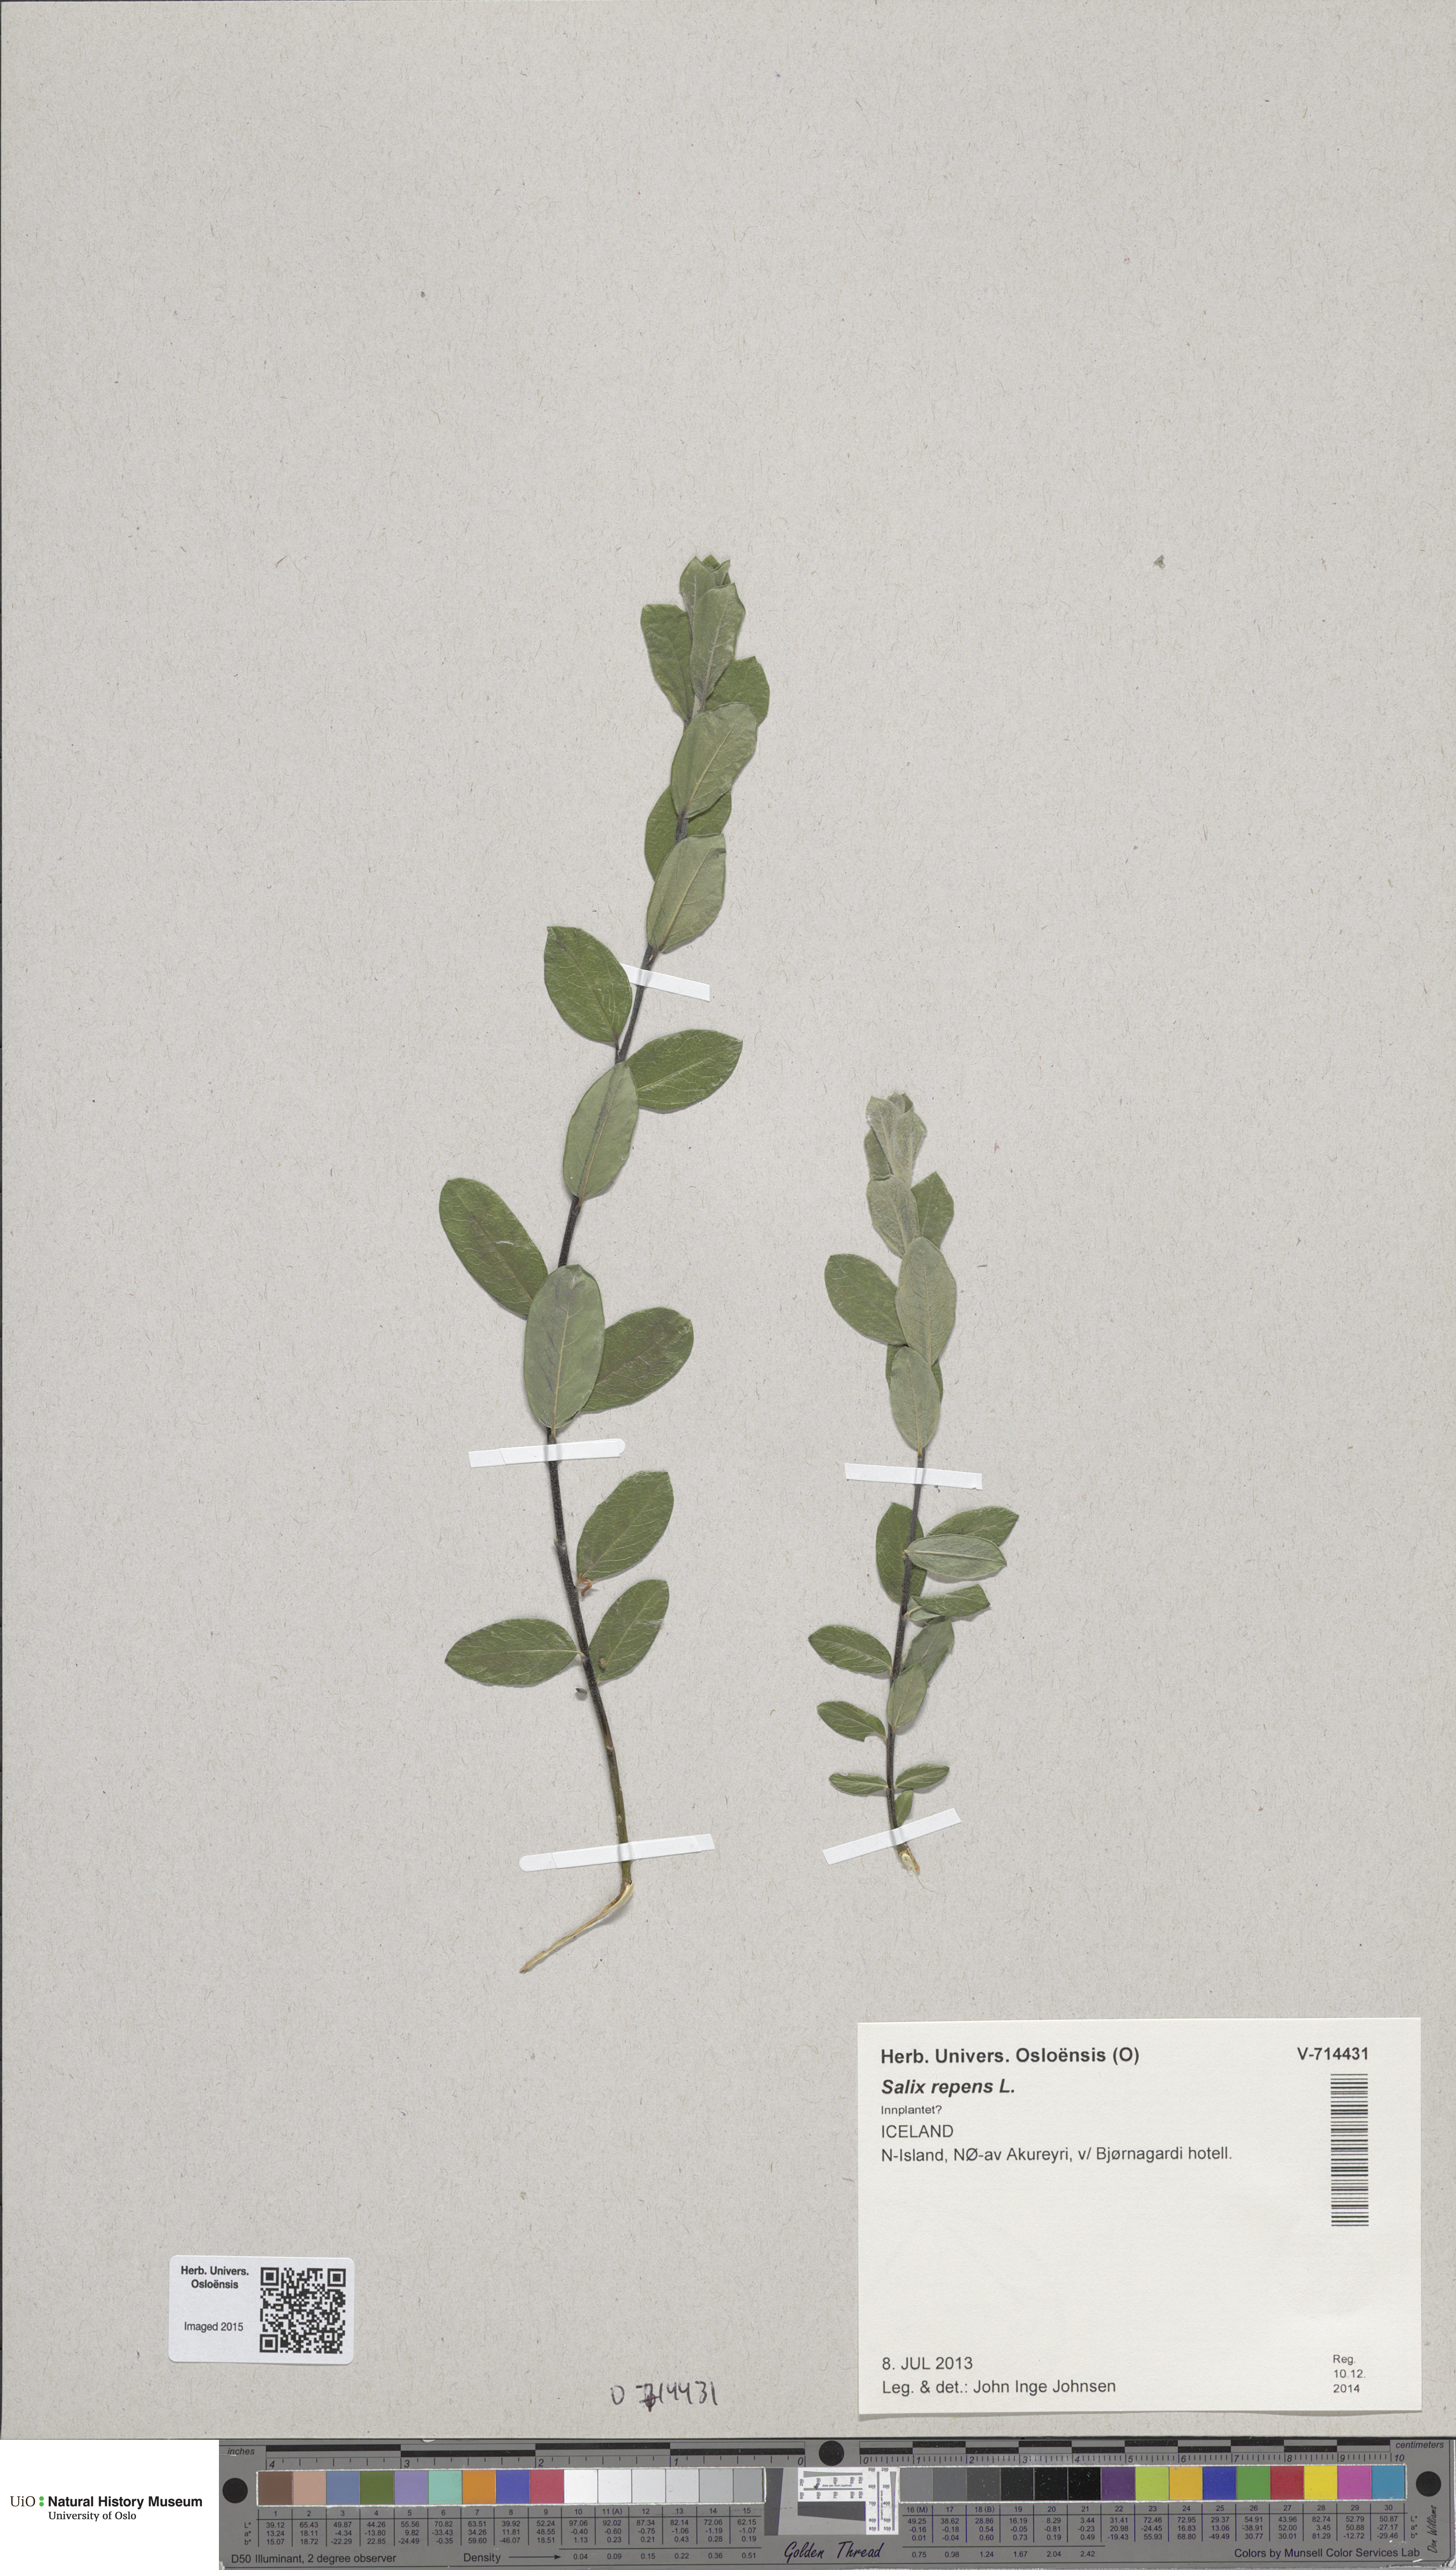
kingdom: Plantae
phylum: Tracheophyta
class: Magnoliopsida
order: Malpighiales
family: Salicaceae
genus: Salix
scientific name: Salix repens
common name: Creeping willow
